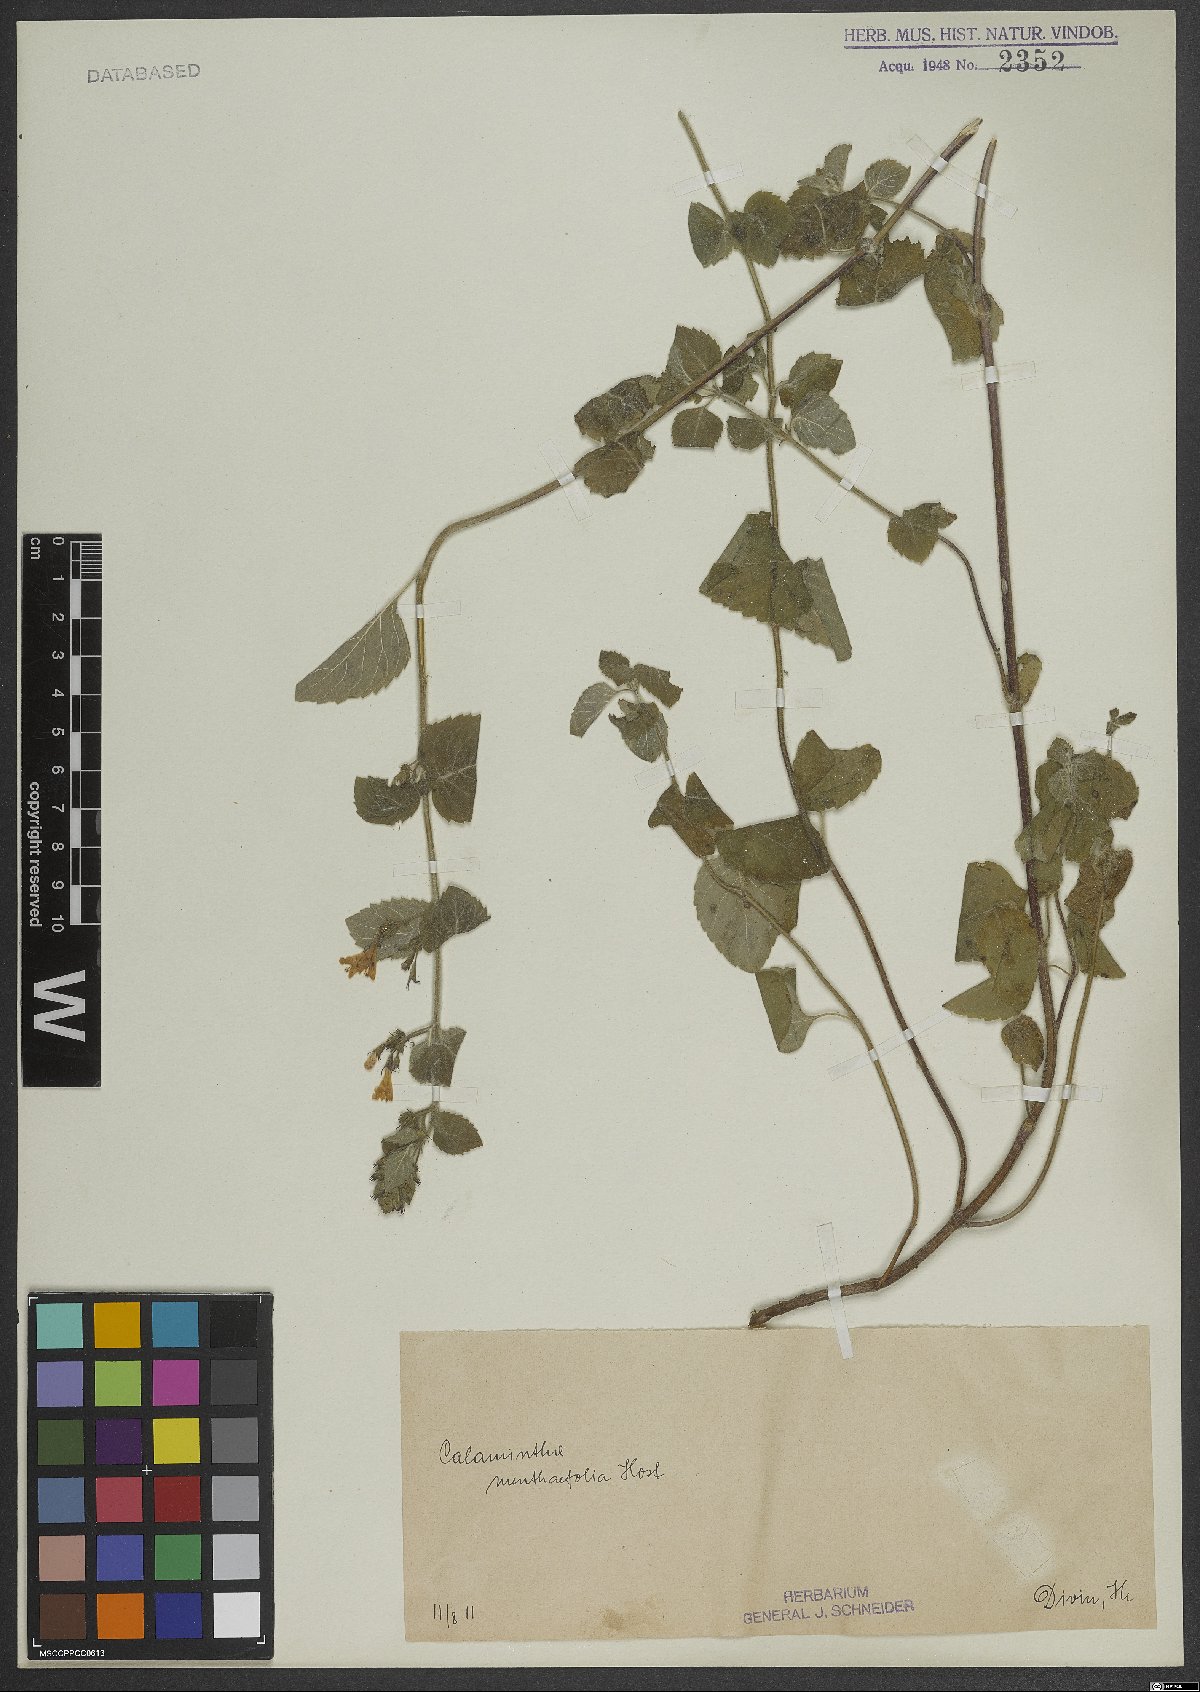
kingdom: Plantae
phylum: Tracheophyta
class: Magnoliopsida
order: Lamiales
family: Lamiaceae
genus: Calamintha
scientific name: Calamintha
